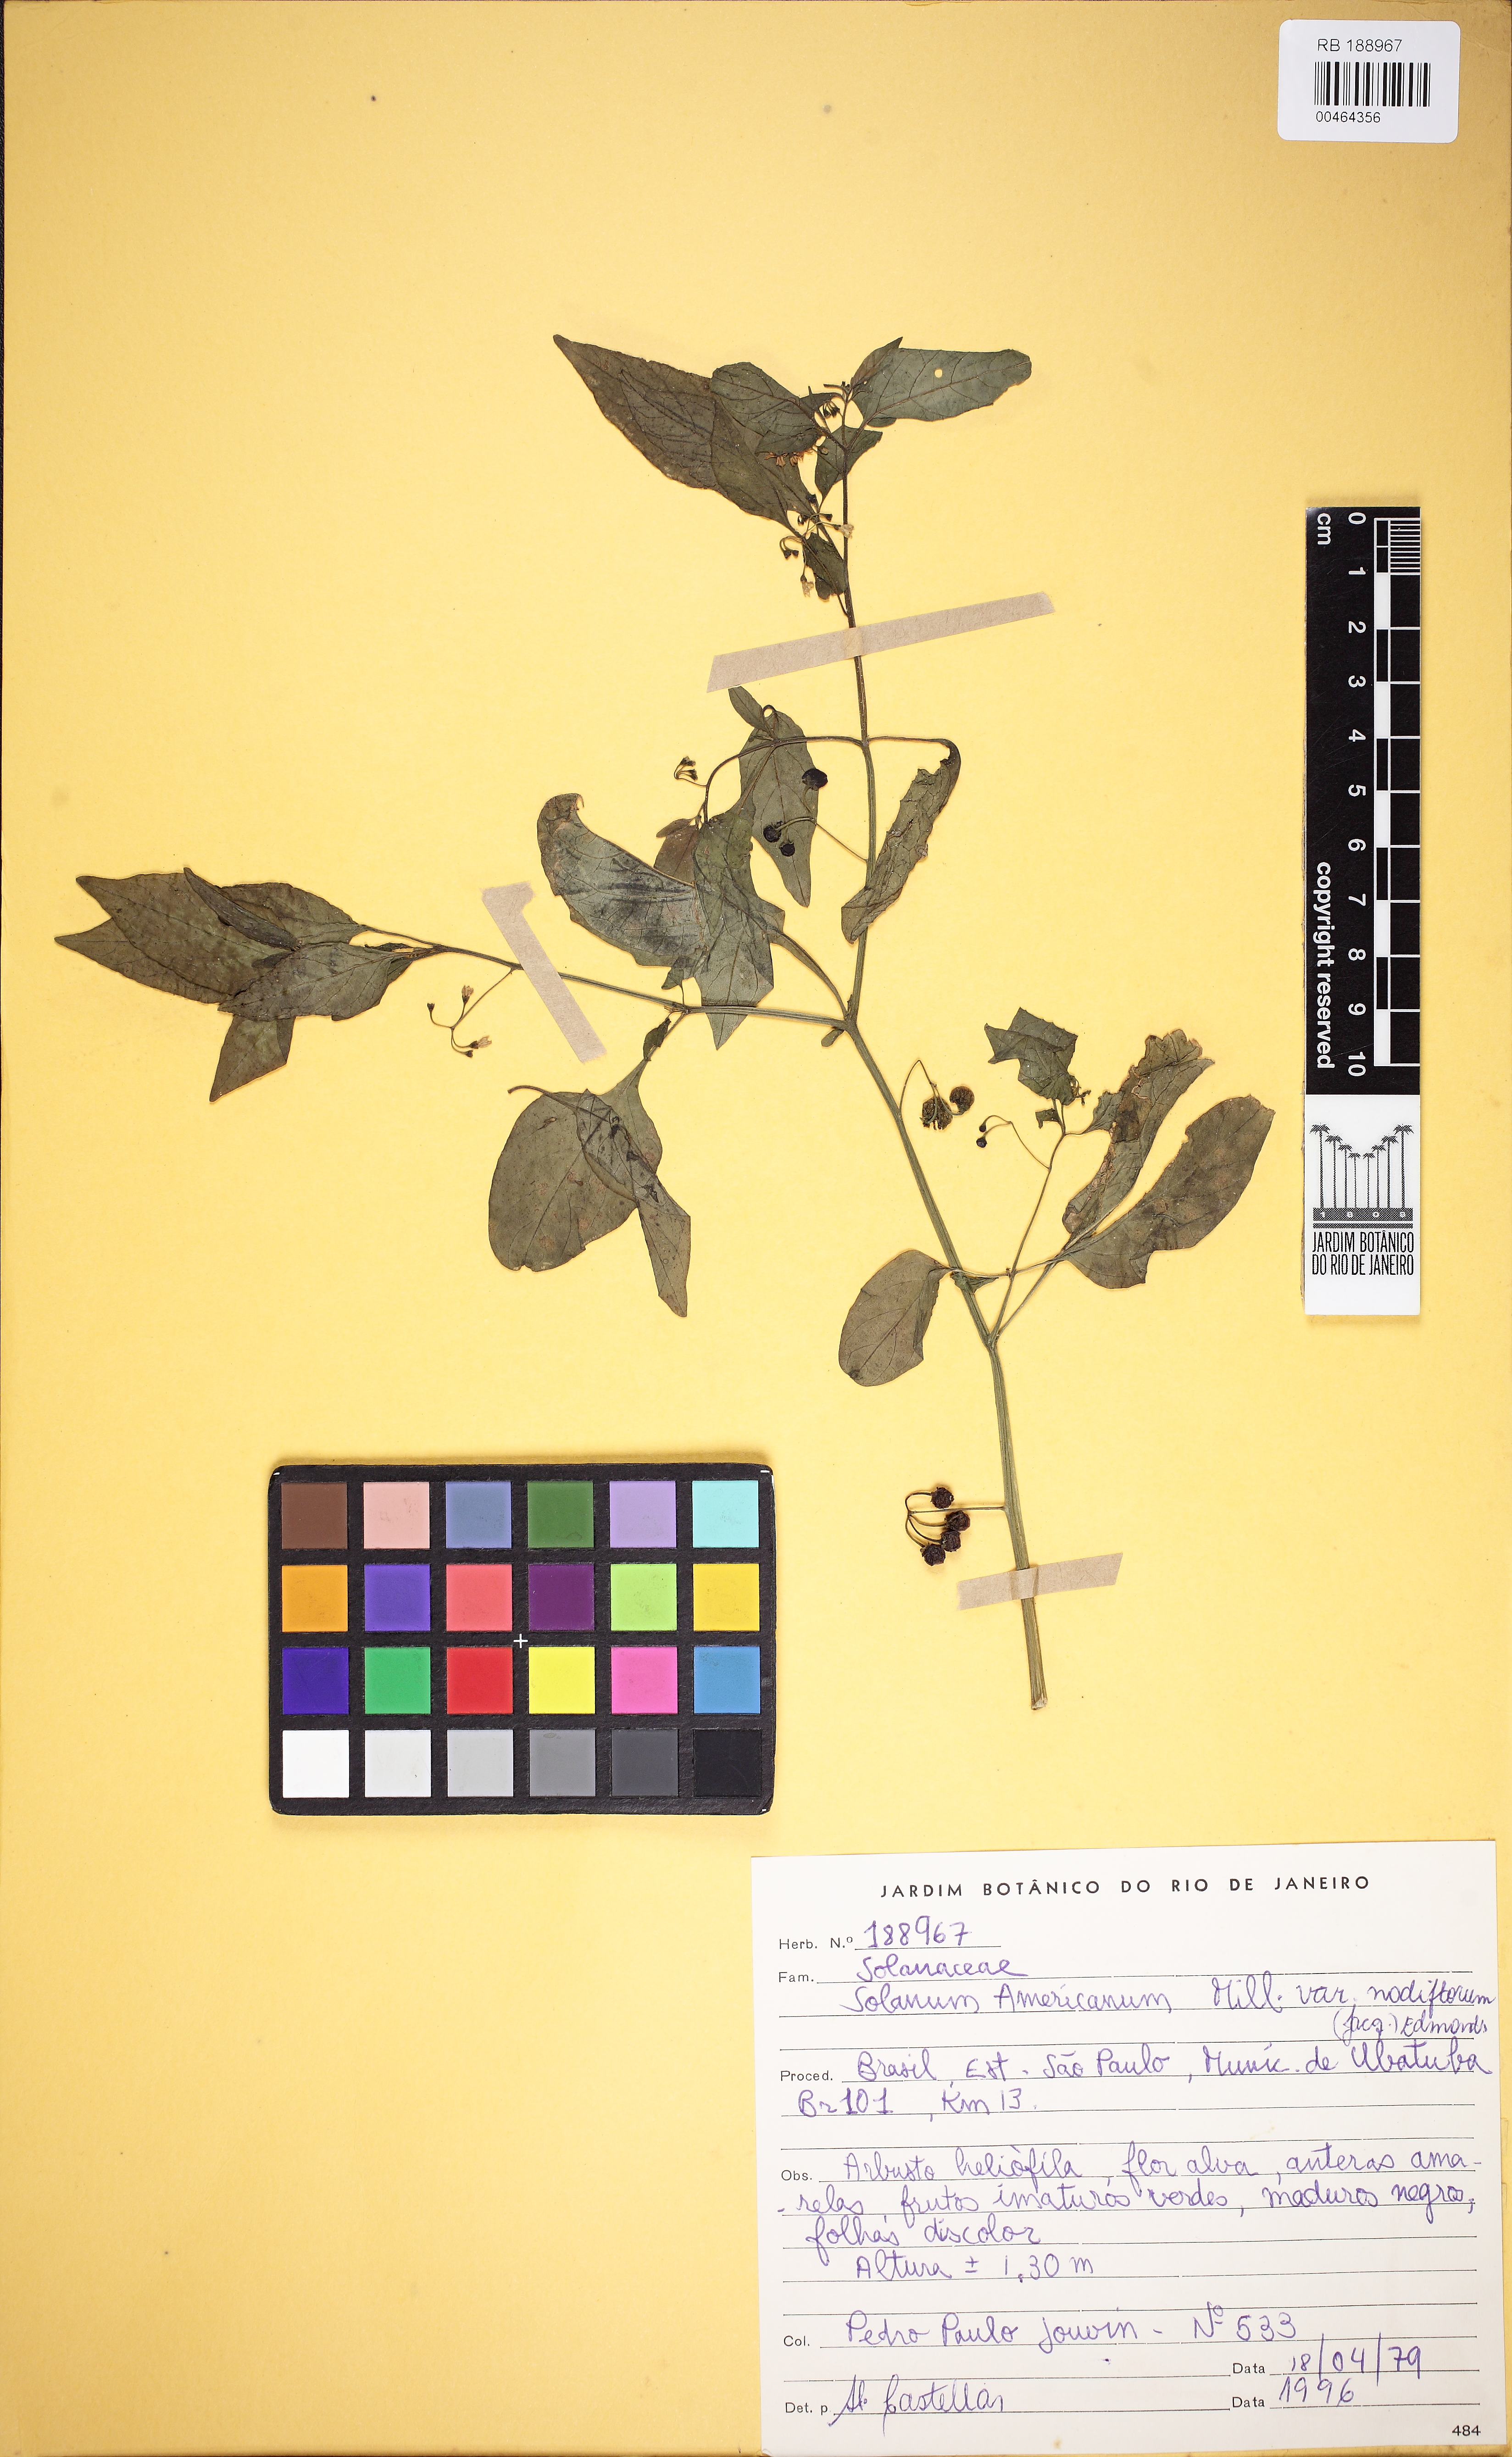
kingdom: Plantae
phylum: Tracheophyta
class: Magnoliopsida
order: Solanales
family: Solanaceae
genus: Solanum
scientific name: Solanum americanum
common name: American black nightshade
